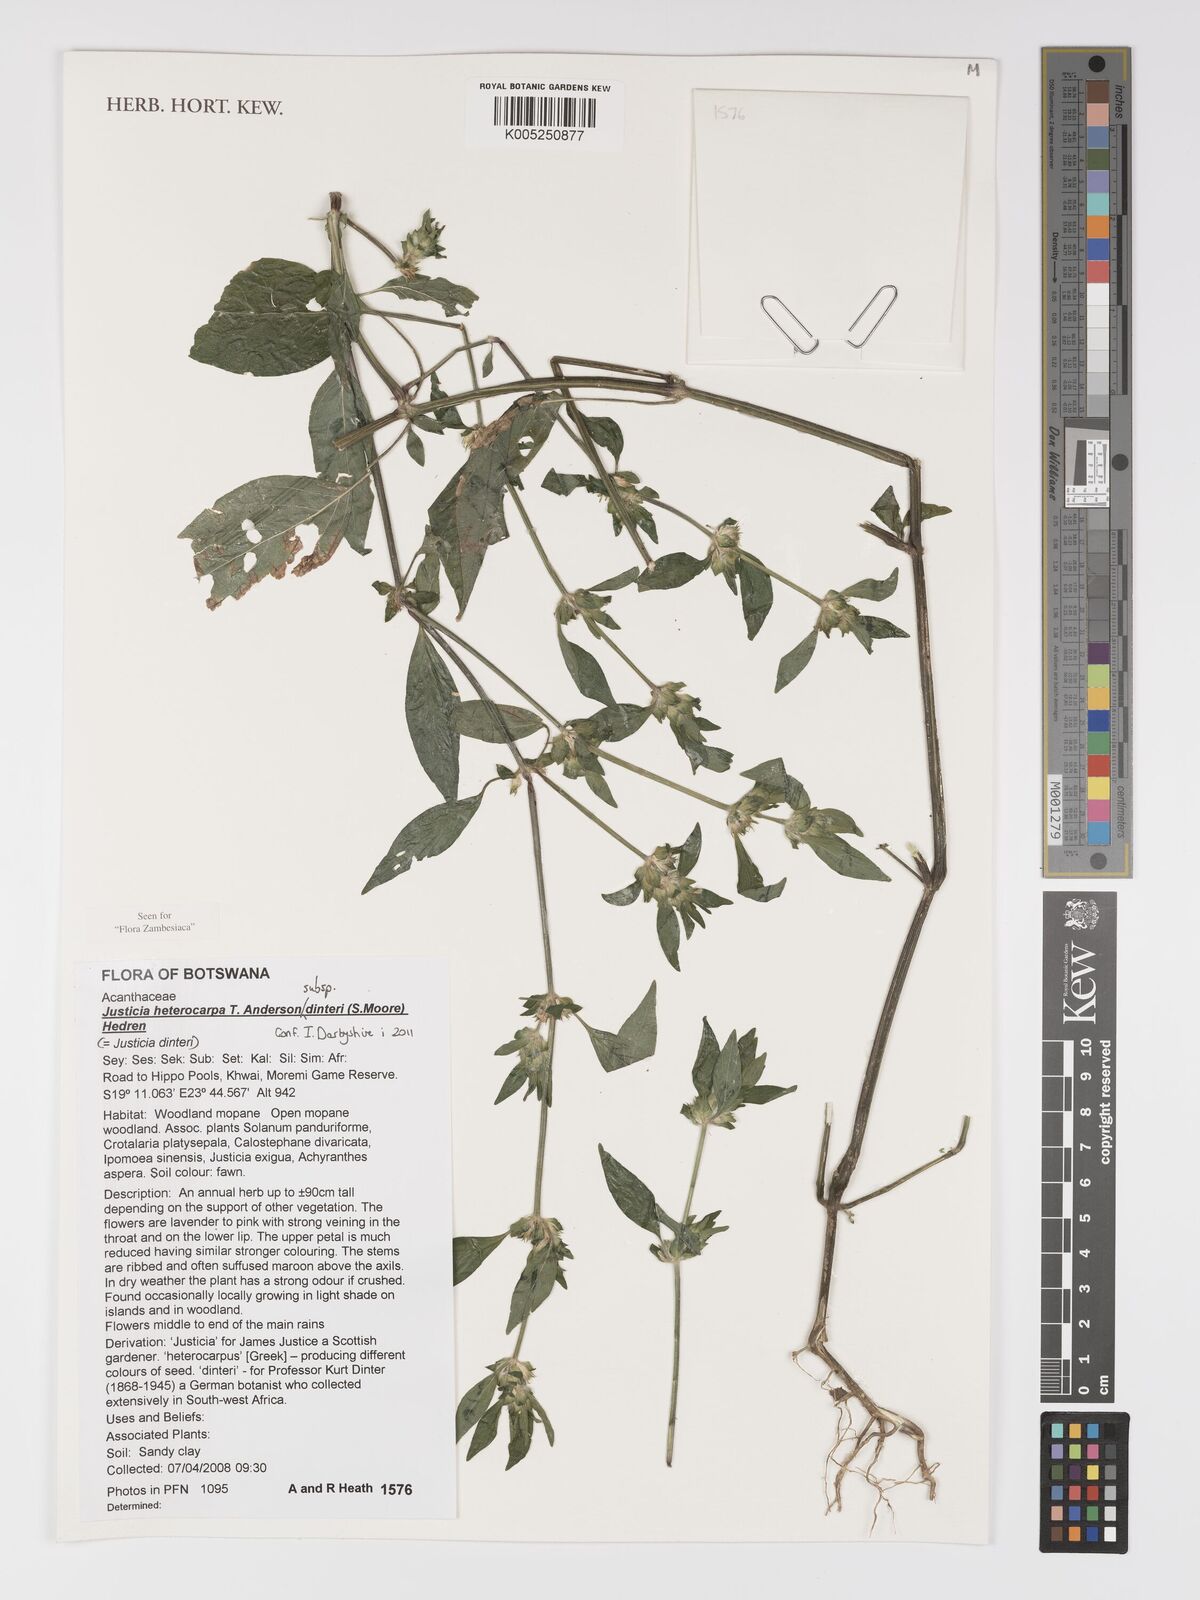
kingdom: Plantae
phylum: Tracheophyta
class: Magnoliopsida
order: Lamiales
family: Acanthaceae
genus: Justicia
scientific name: Justicia heterocarpa
